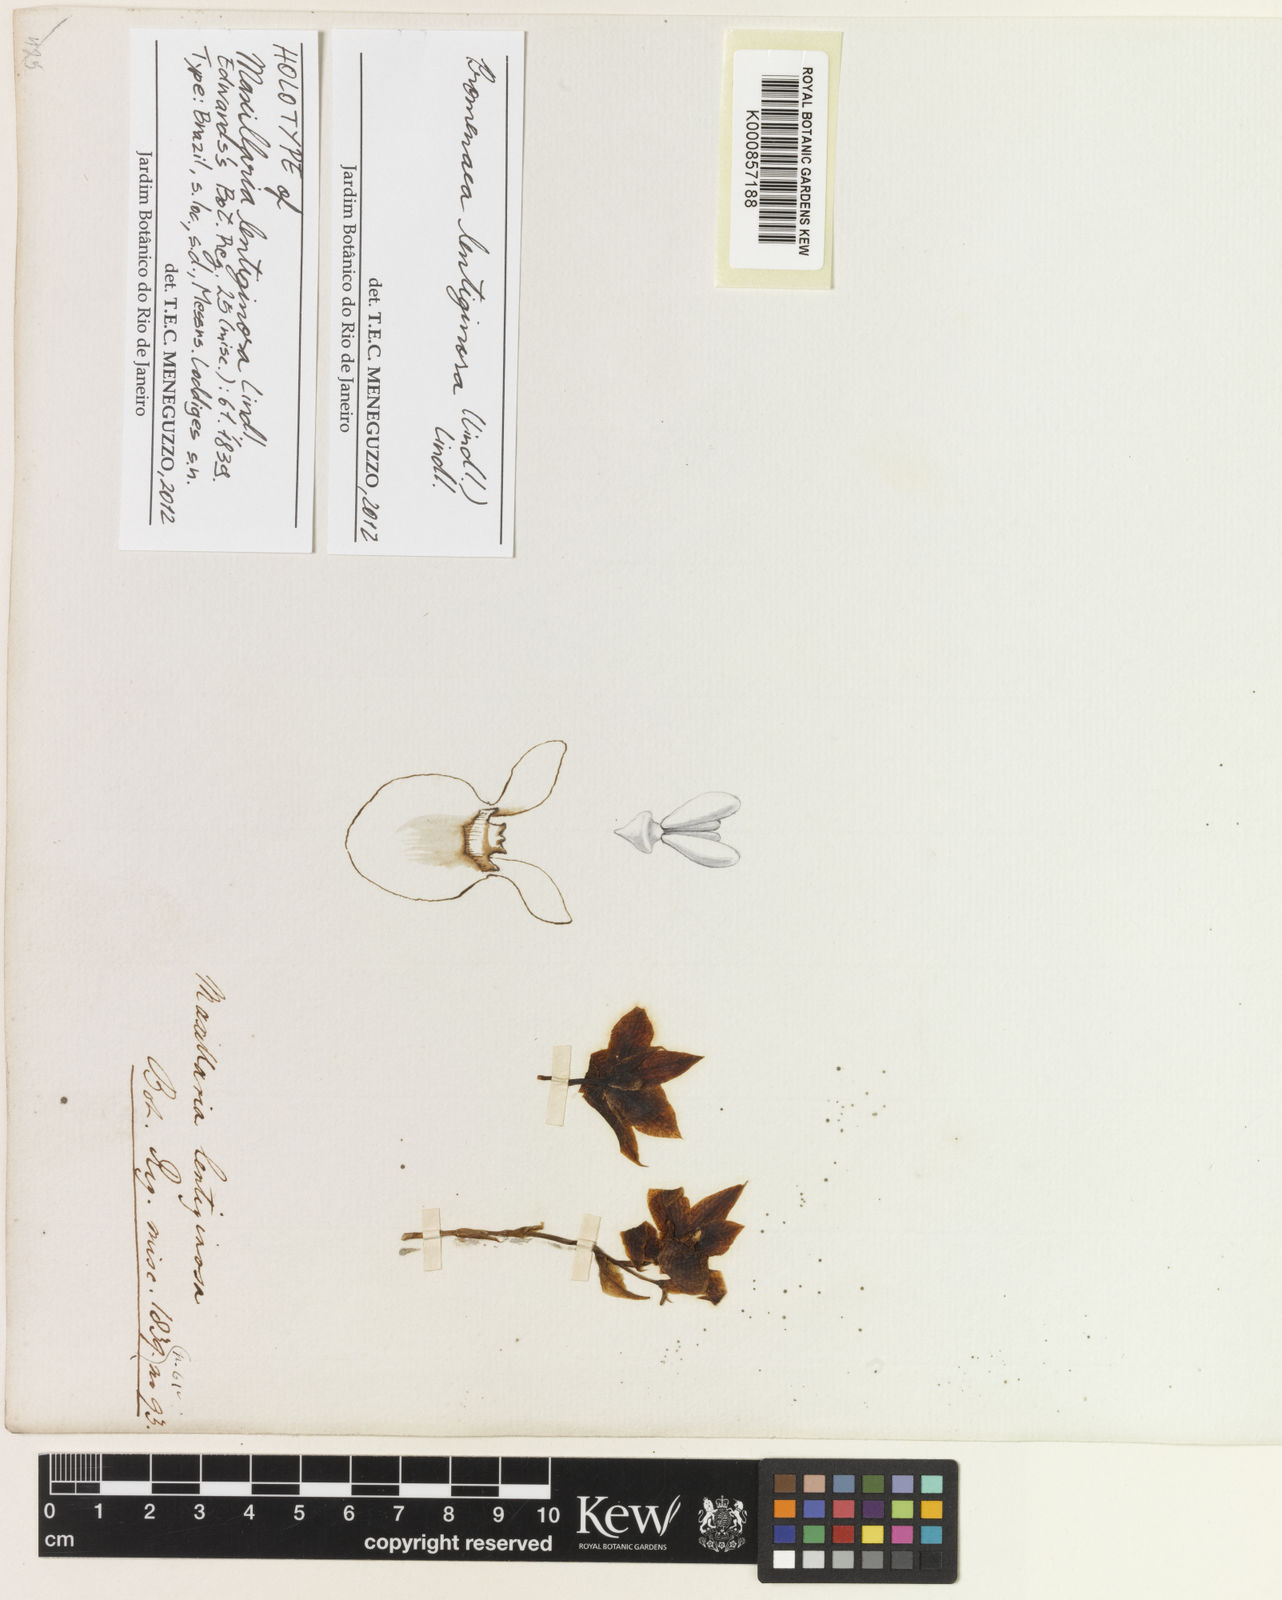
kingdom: Plantae
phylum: Tracheophyta
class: Liliopsida
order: Asparagales
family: Orchidaceae
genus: Promenaea
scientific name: Promenaea rollissonii
